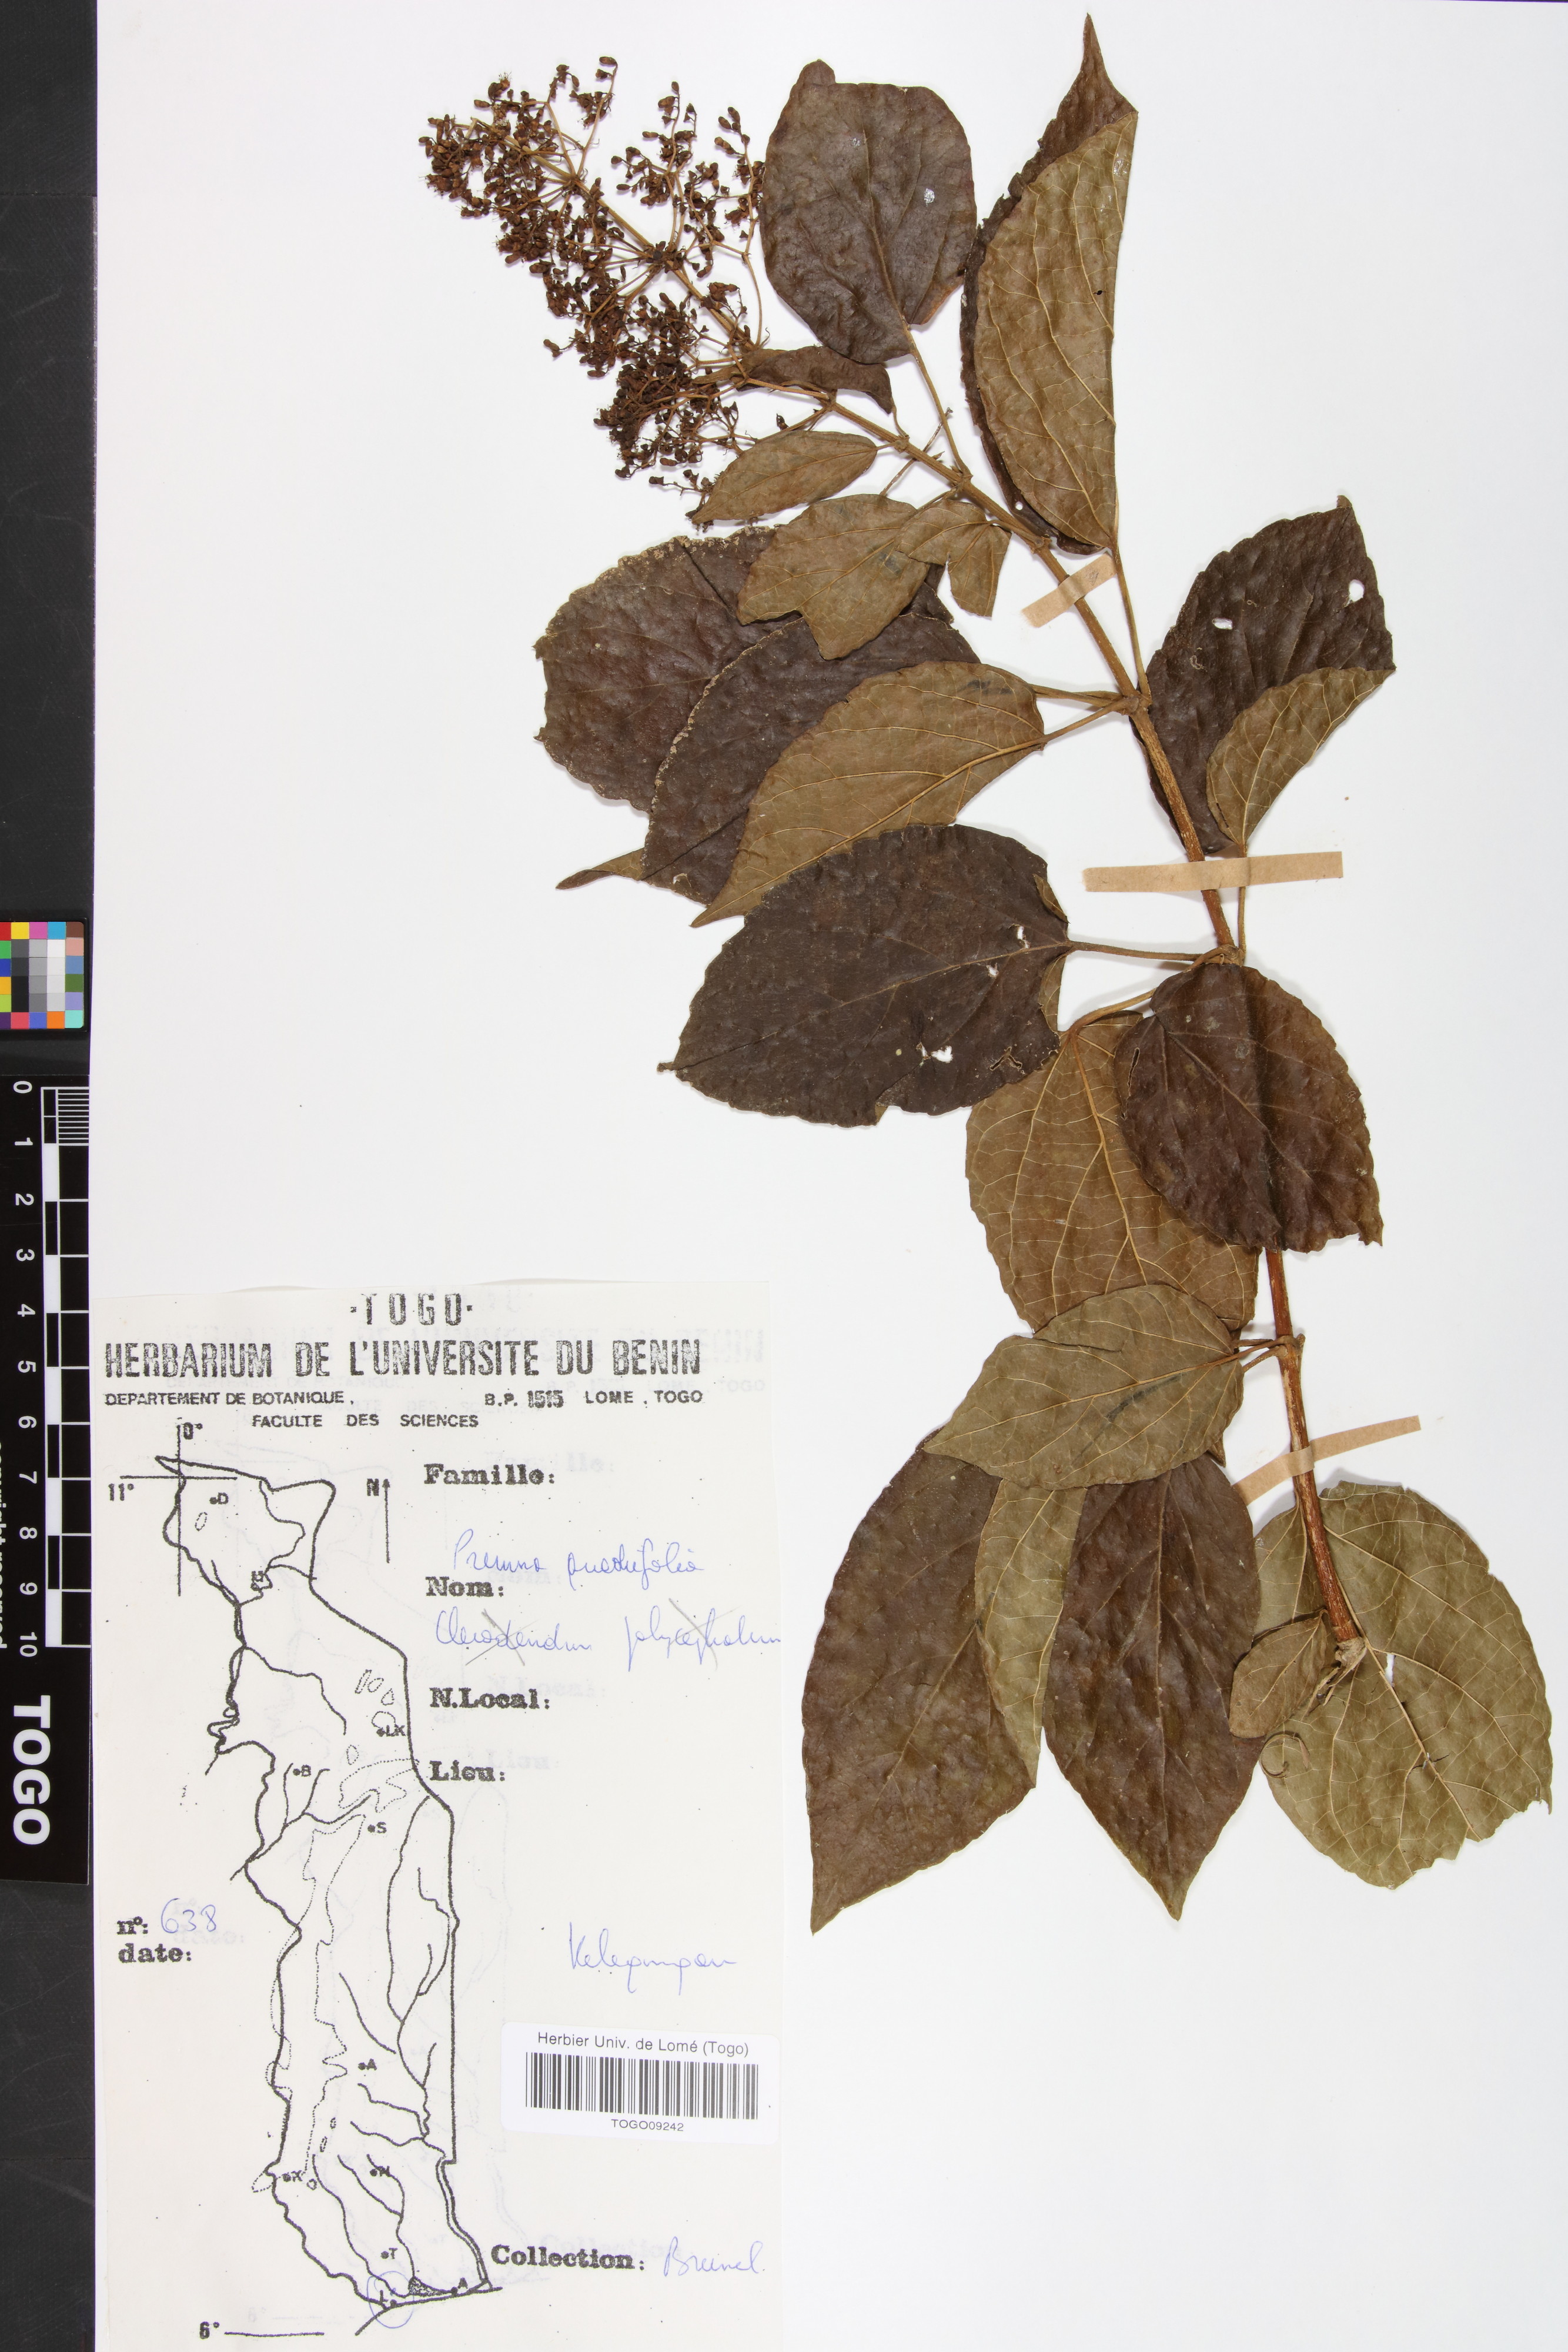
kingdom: Plantae
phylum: Tracheophyta
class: Magnoliopsida
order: Lamiales
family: Lamiaceae
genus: Premna
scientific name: Premna quadrifolia
